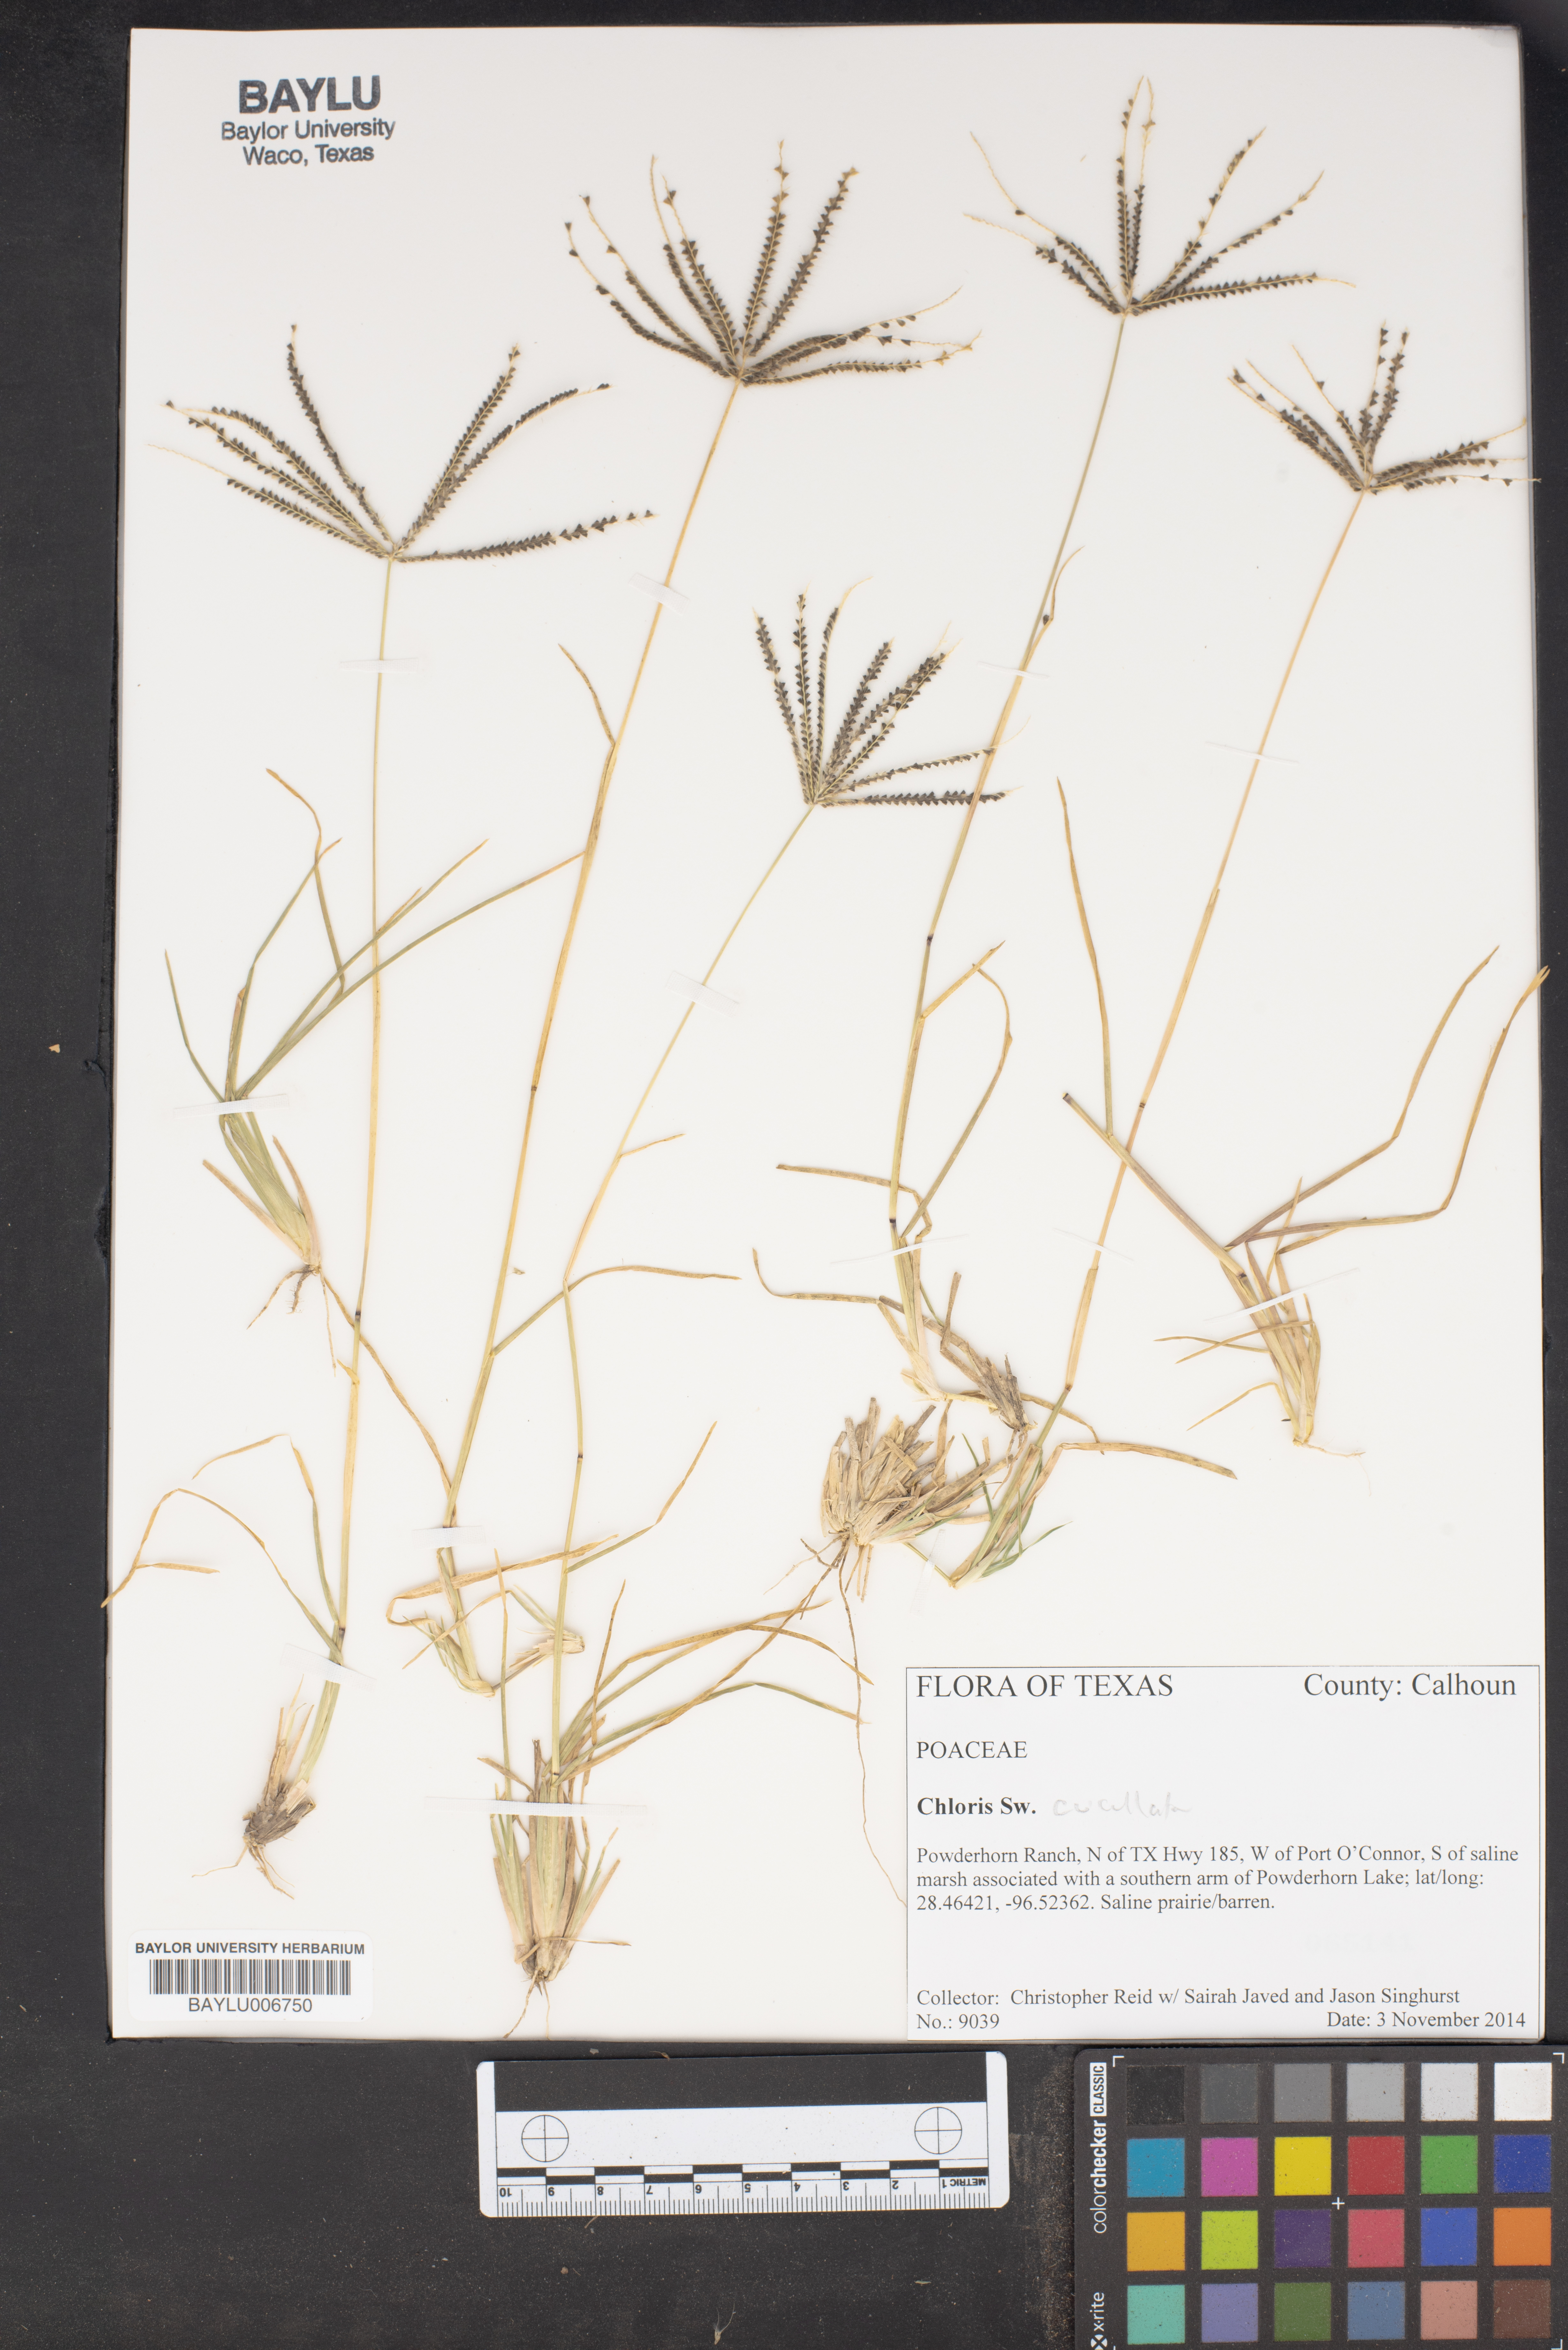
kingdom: Plantae
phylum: Tracheophyta
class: Liliopsida
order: Poales
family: Poaceae
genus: Chloris
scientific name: Chloris cucullata
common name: Hooded windmill grass
